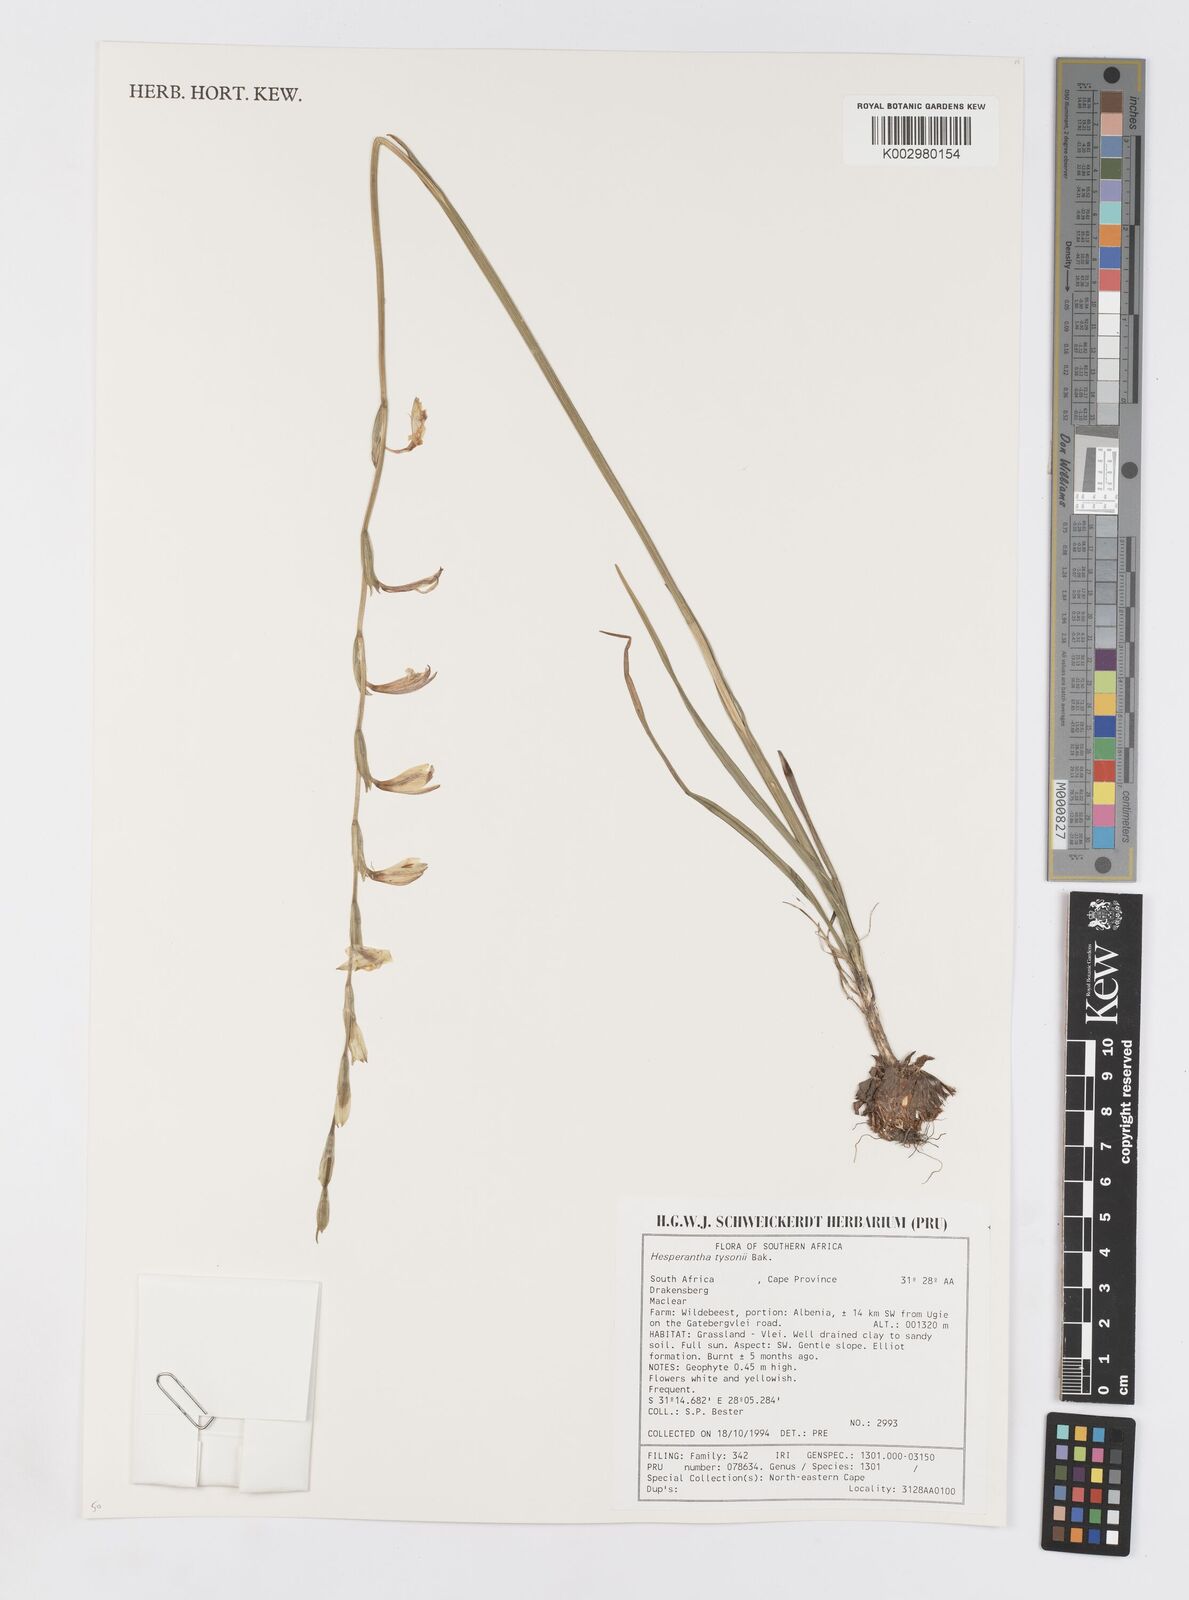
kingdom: Plantae
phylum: Tracheophyta
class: Liliopsida
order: Asparagales
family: Iridaceae
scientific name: Iridaceae
